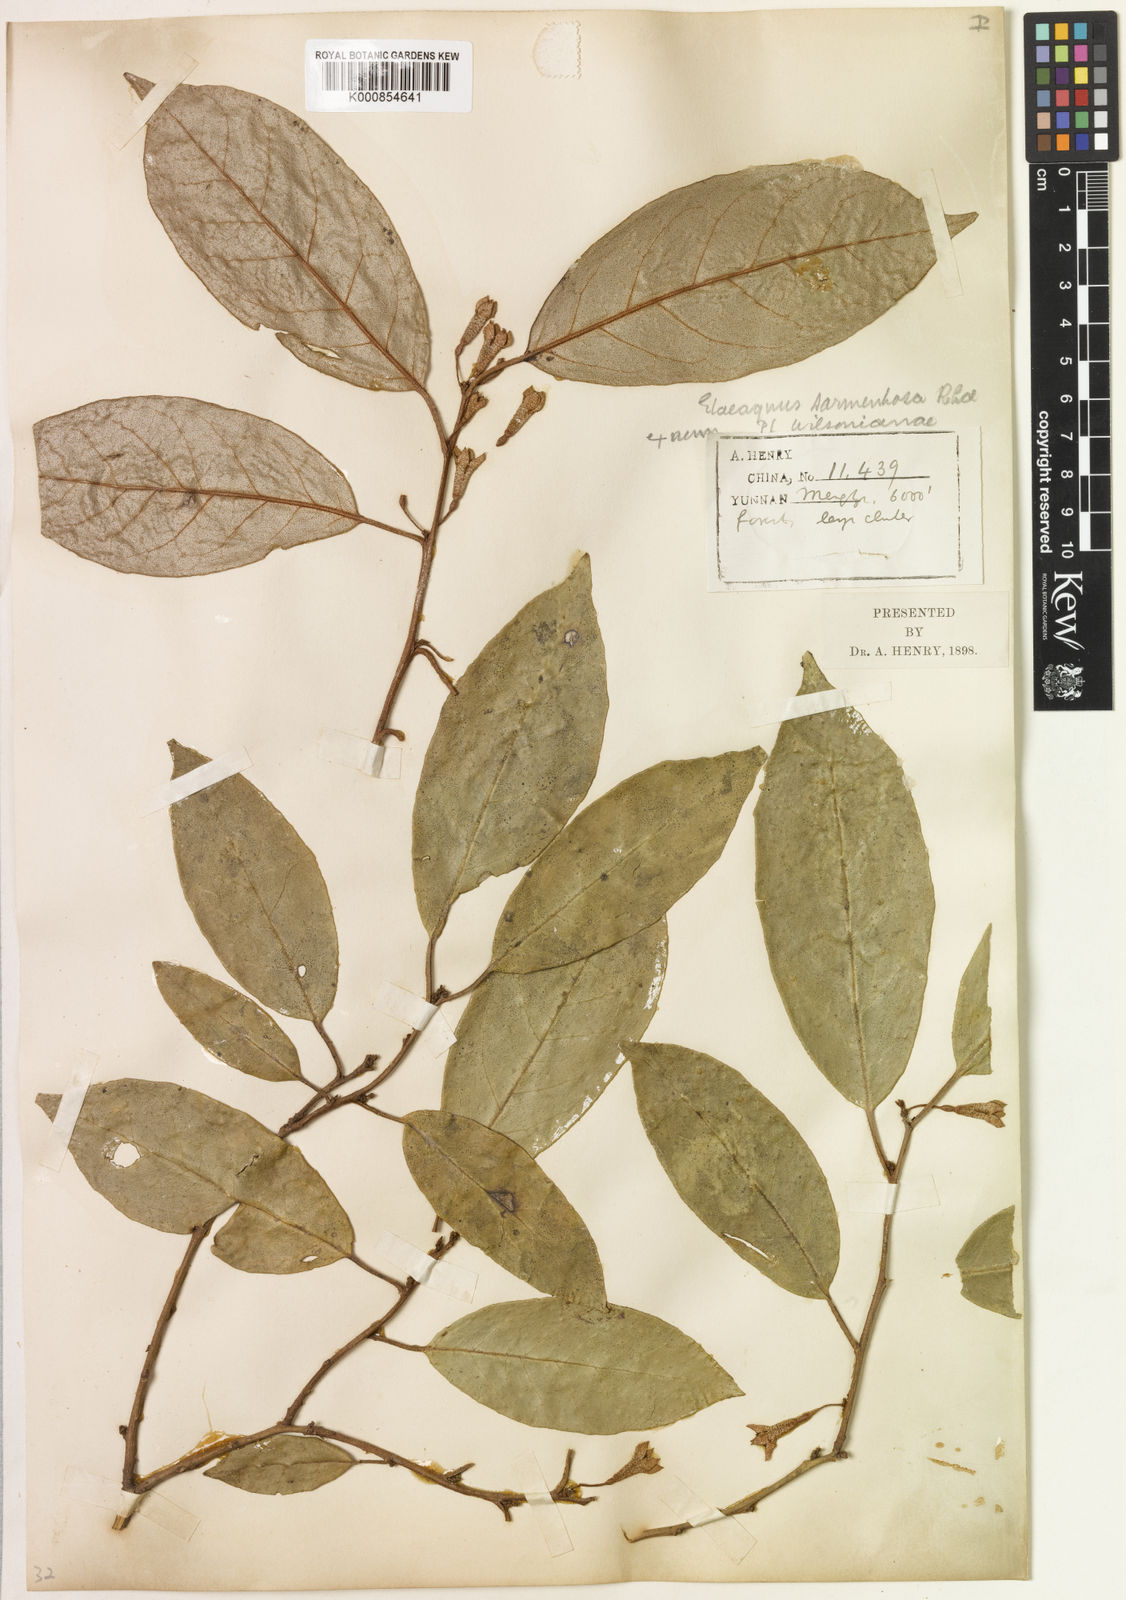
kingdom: Plantae
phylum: Tracheophyta
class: Magnoliopsida
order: Rosales
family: Elaeagnaceae
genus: Elaeagnus
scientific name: Elaeagnus sarmentosa
